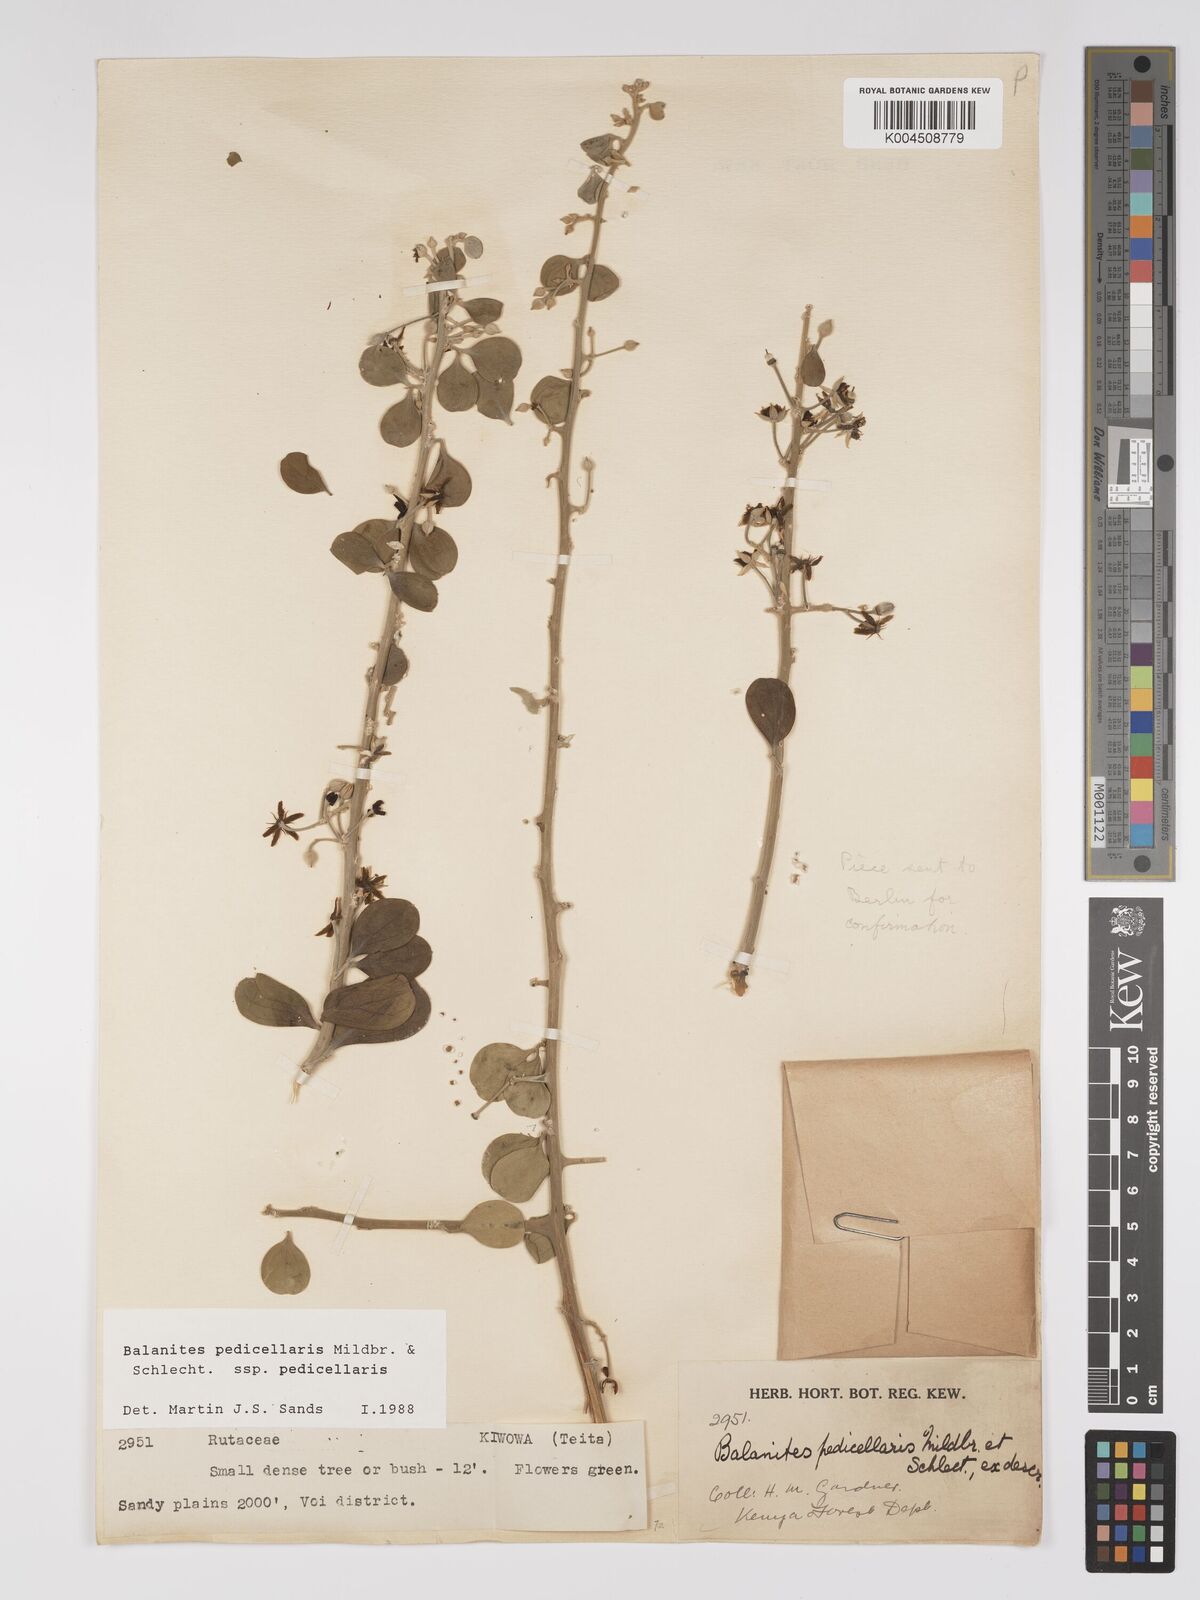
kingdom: Plantae
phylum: Tracheophyta
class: Magnoliopsida
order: Zygophyllales
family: Zygophyllaceae
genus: Balanites
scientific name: Balanites pedicellaris
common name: Small green-thorn
